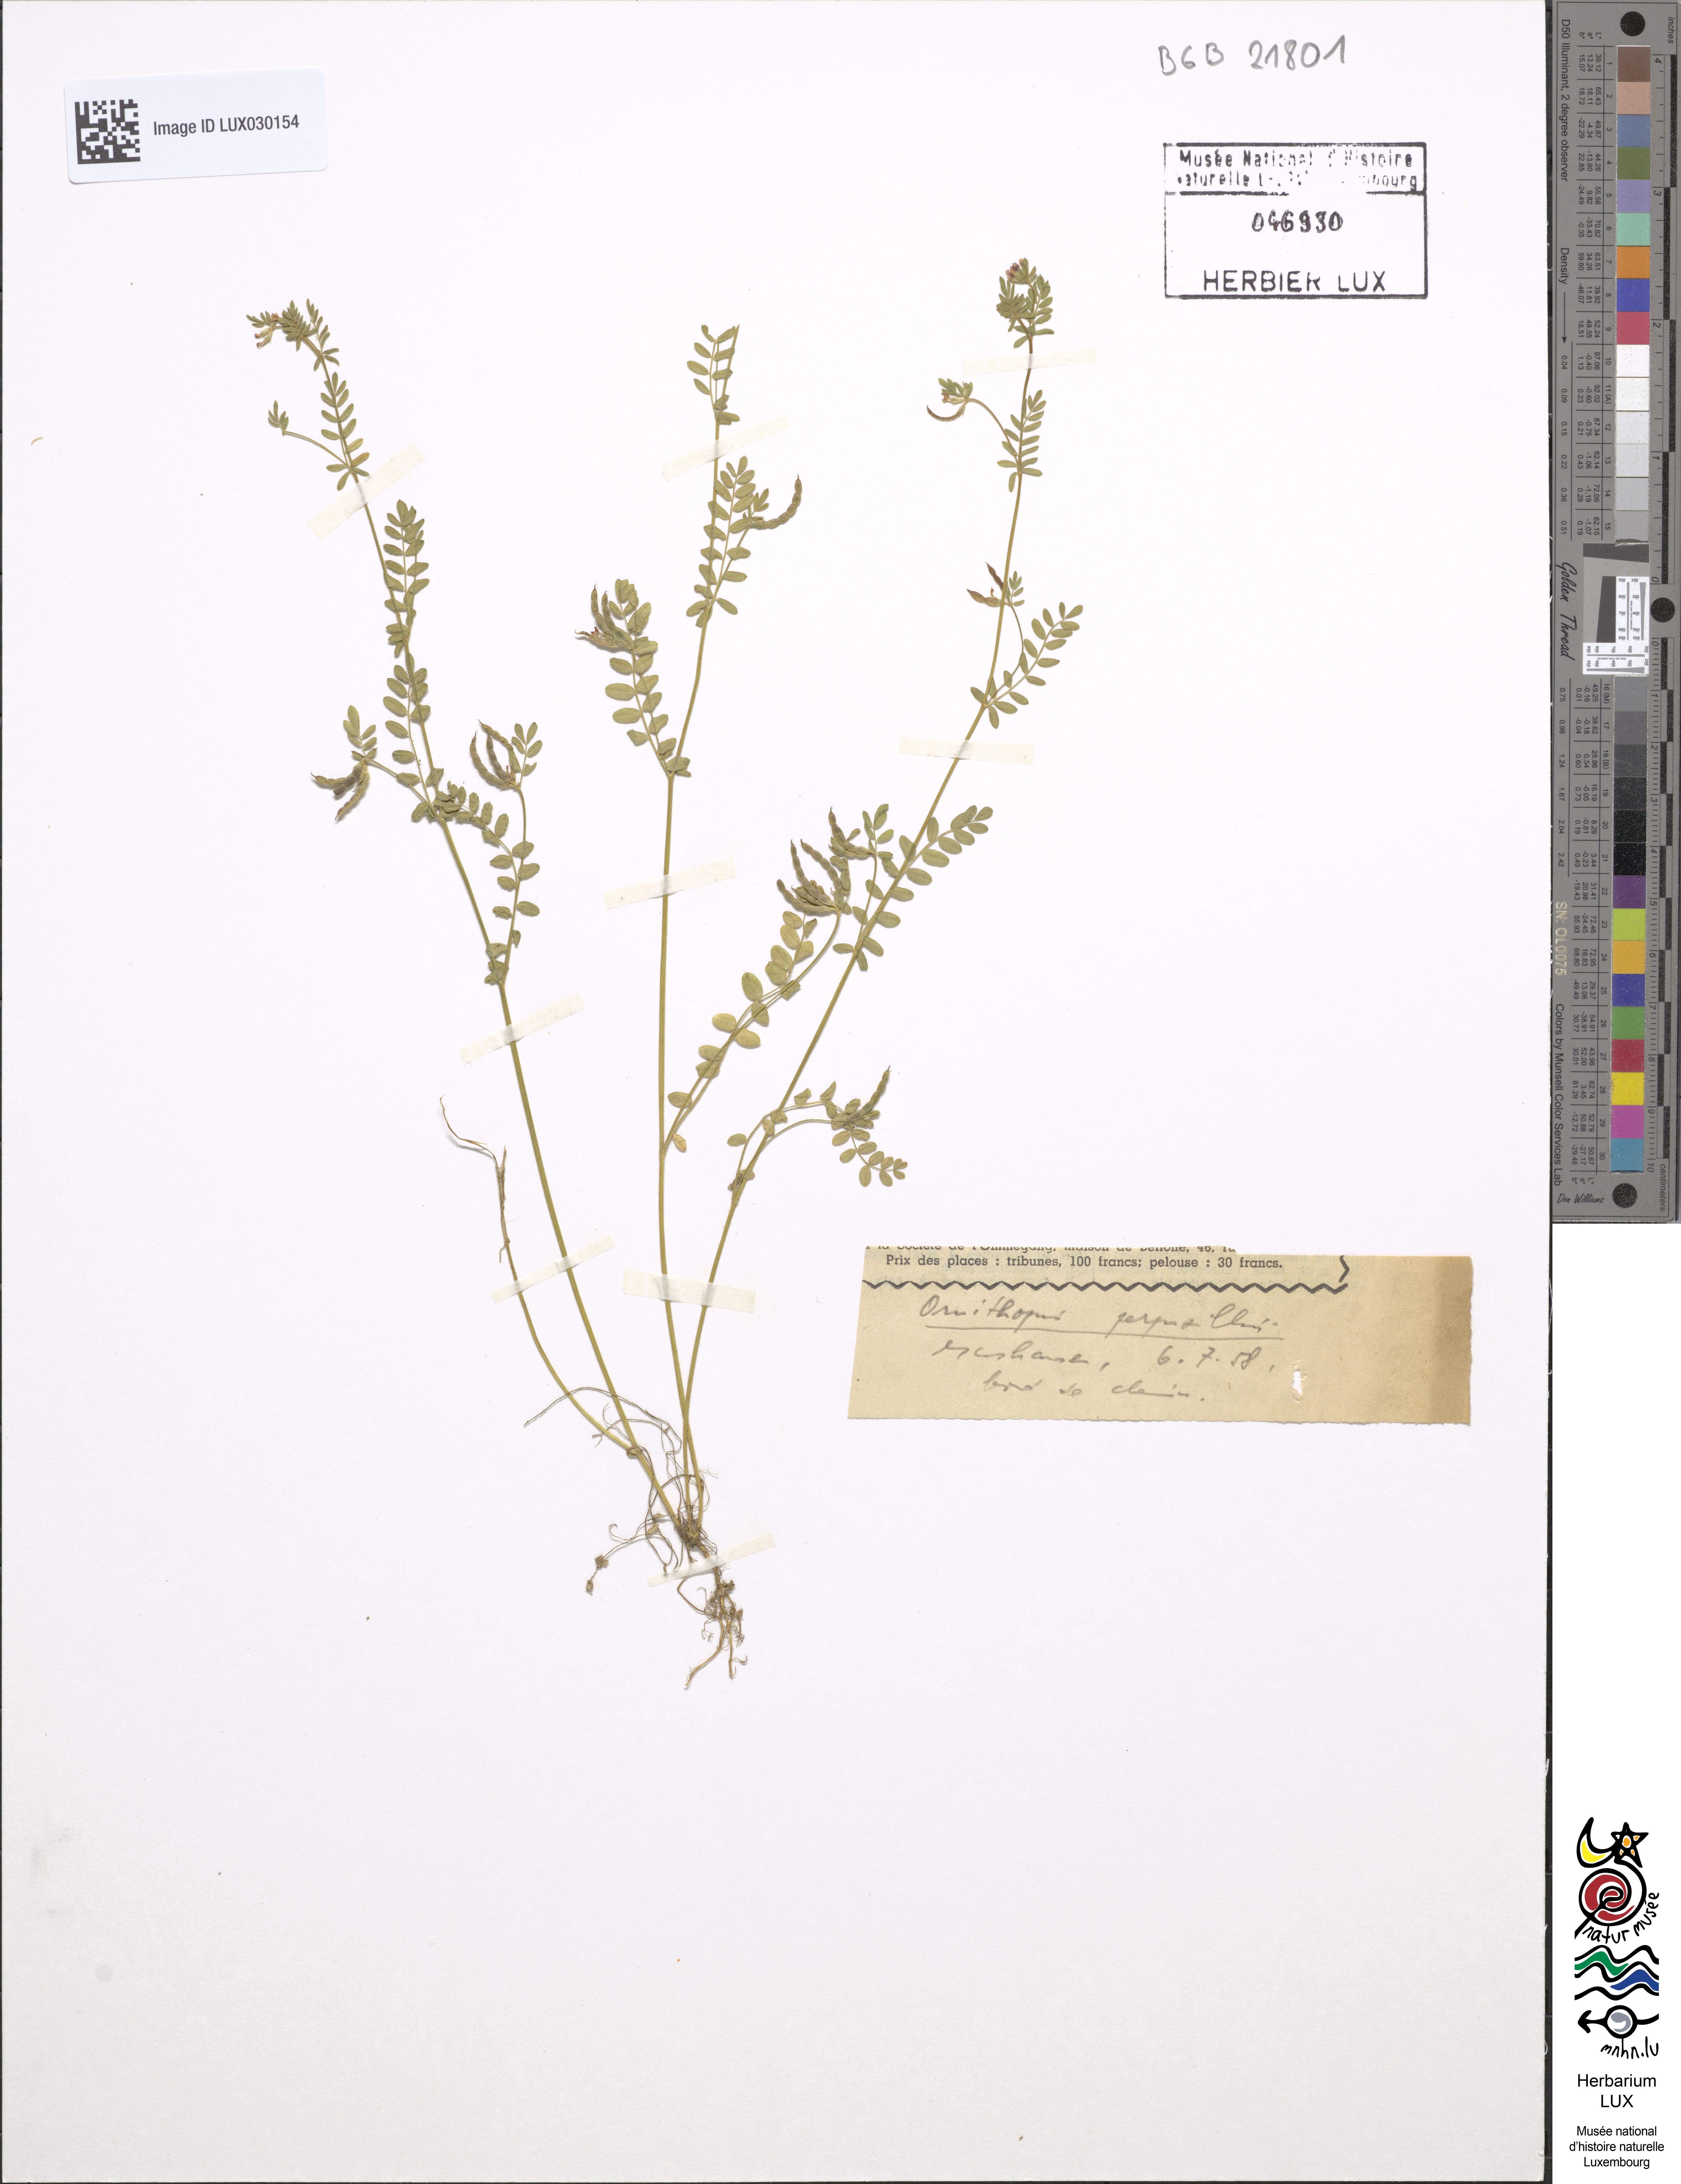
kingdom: Plantae
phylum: Tracheophyta
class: Magnoliopsida
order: Fabales
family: Fabaceae
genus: Ornithopus
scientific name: Ornithopus perpusillus
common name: Bird's-foot
